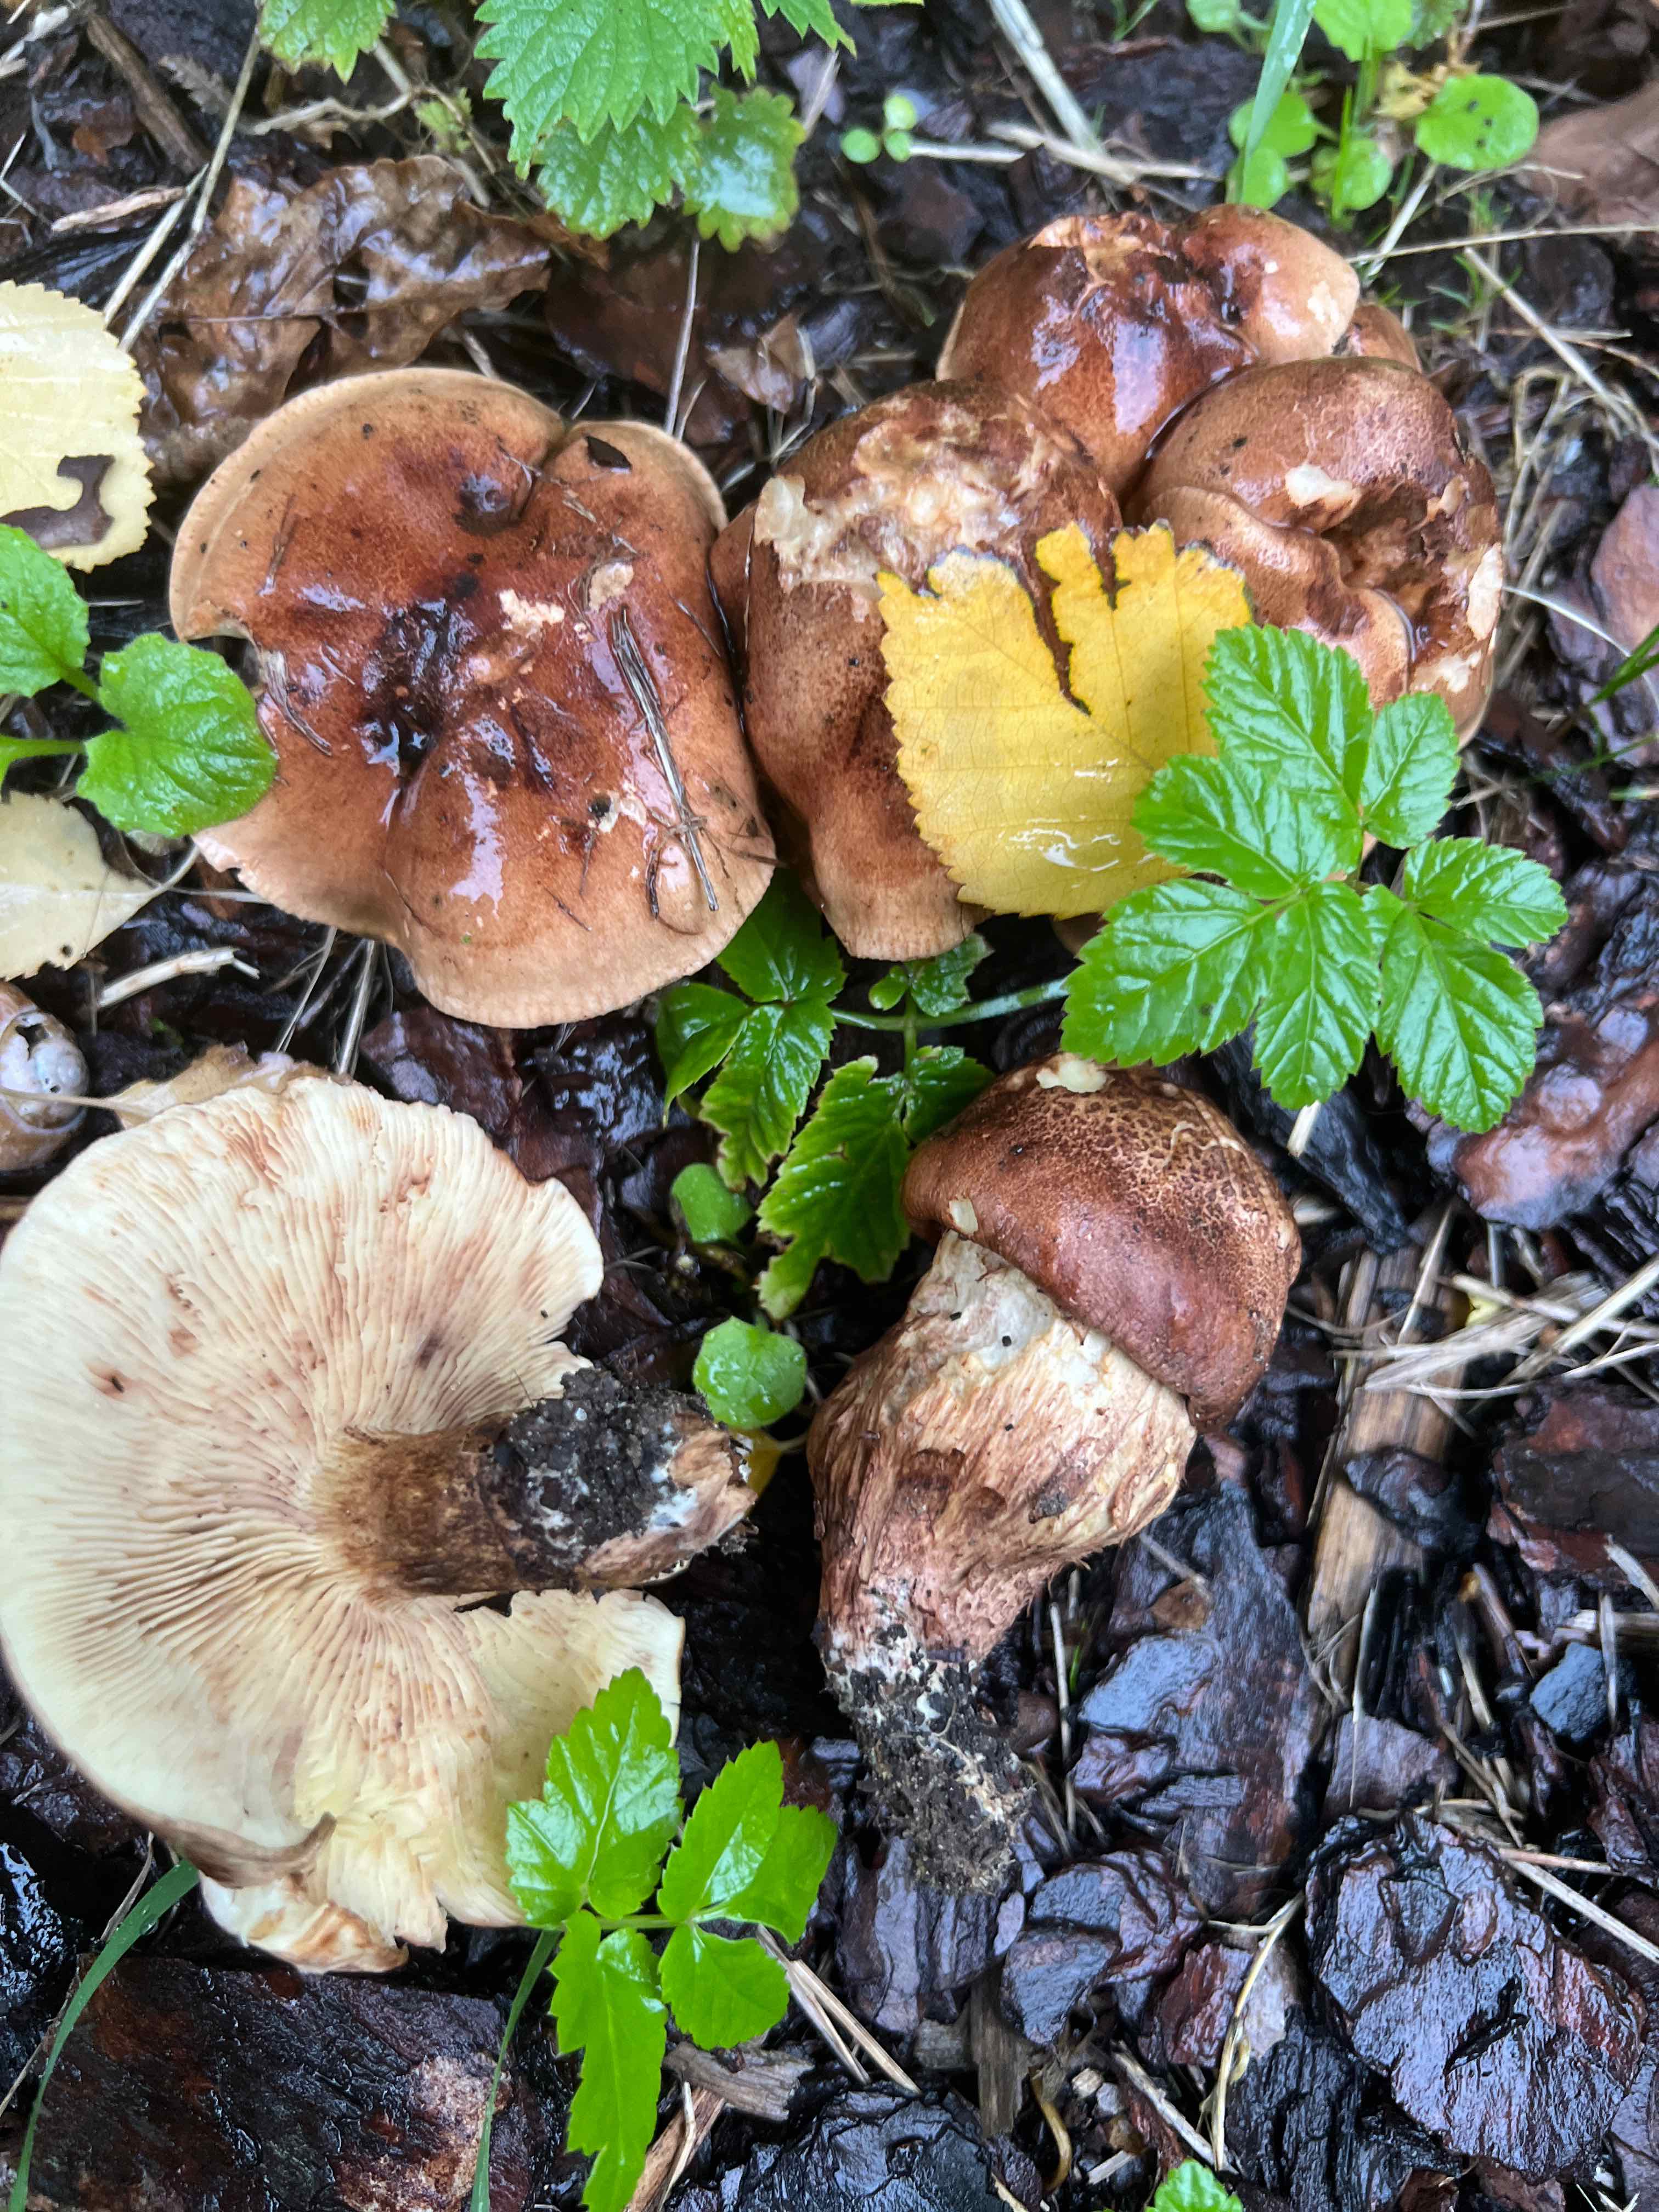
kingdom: Fungi
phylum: Basidiomycota
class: Agaricomycetes
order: Agaricales
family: Tricholomataceae
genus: Tricholoma
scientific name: Tricholoma ustale
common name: sveden ridderhat
